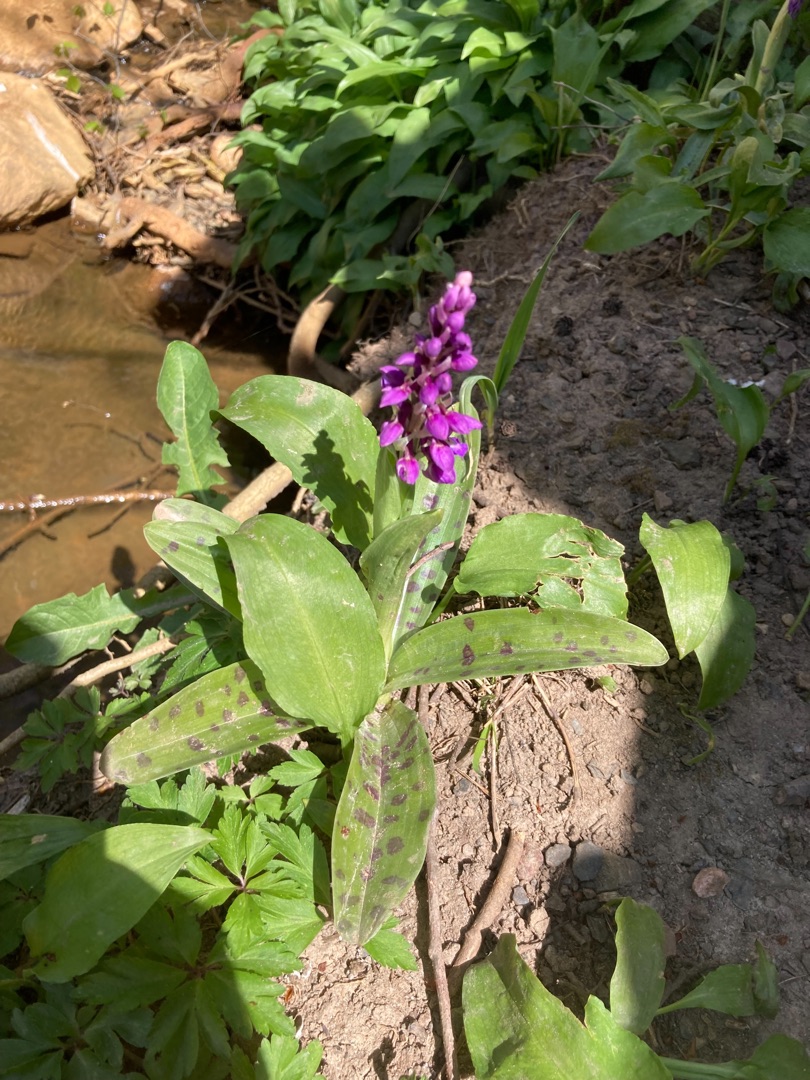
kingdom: Plantae
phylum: Tracheophyta
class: Liliopsida
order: Asparagales
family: Orchidaceae
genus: Orchis
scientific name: Orchis mascula
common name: Tyndakset gøgeurt
